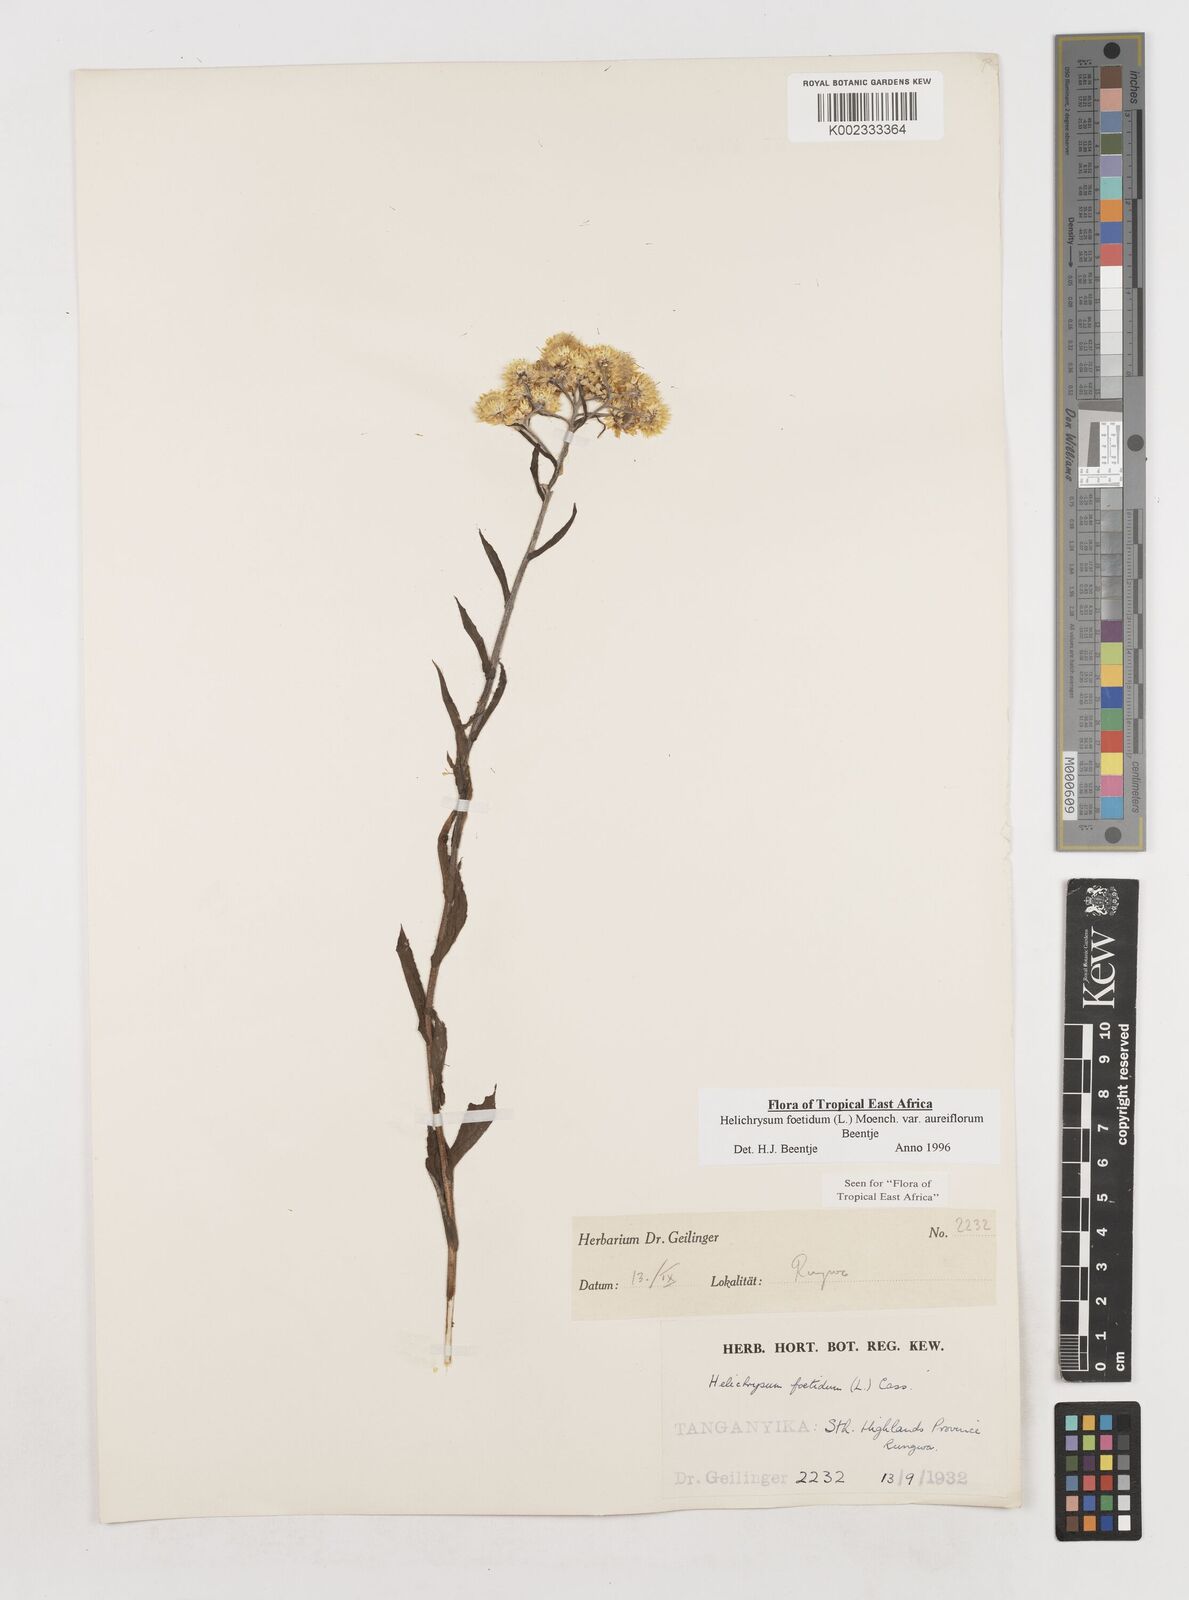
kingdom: Plantae
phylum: Tracheophyta
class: Magnoliopsida
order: Asterales
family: Asteraceae
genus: Helichrysum
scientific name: Helichrysum foetidum
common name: Stinking everlasting
